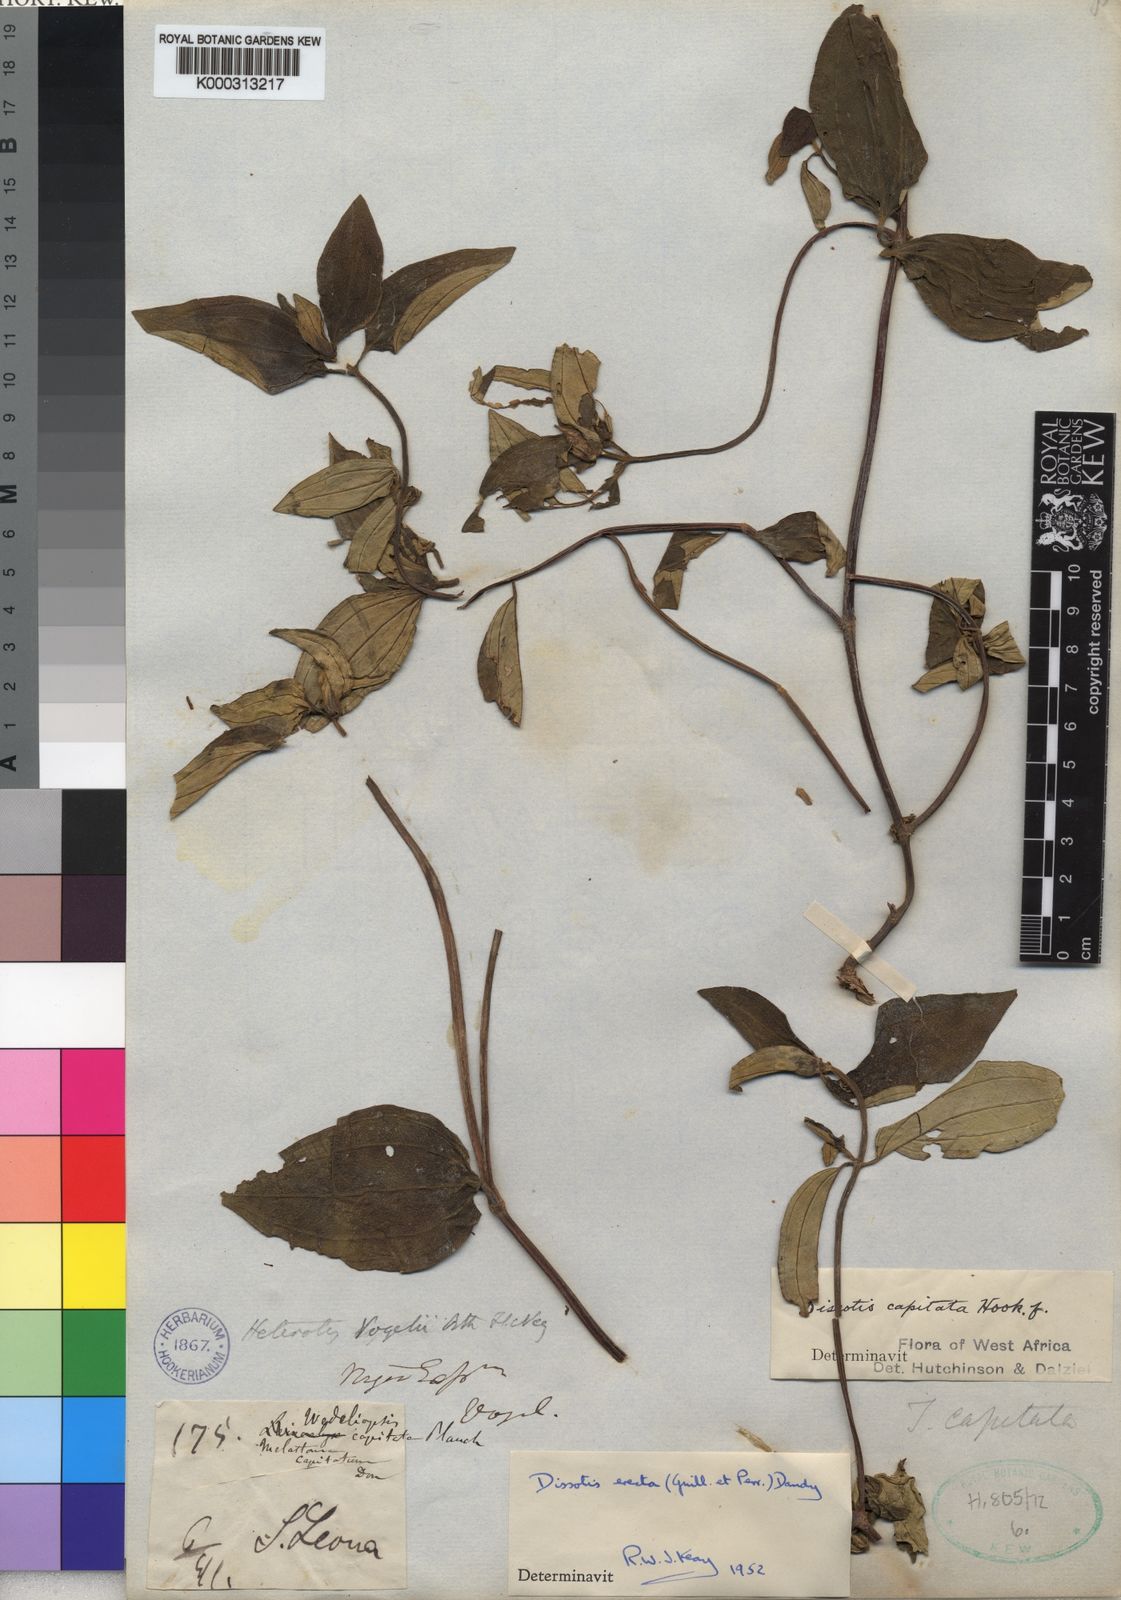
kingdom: Plantae
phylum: Tracheophyta
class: Magnoliopsida
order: Myrtales
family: Melastomataceae
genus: Melastomastrum
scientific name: Melastomastrum capitatum
